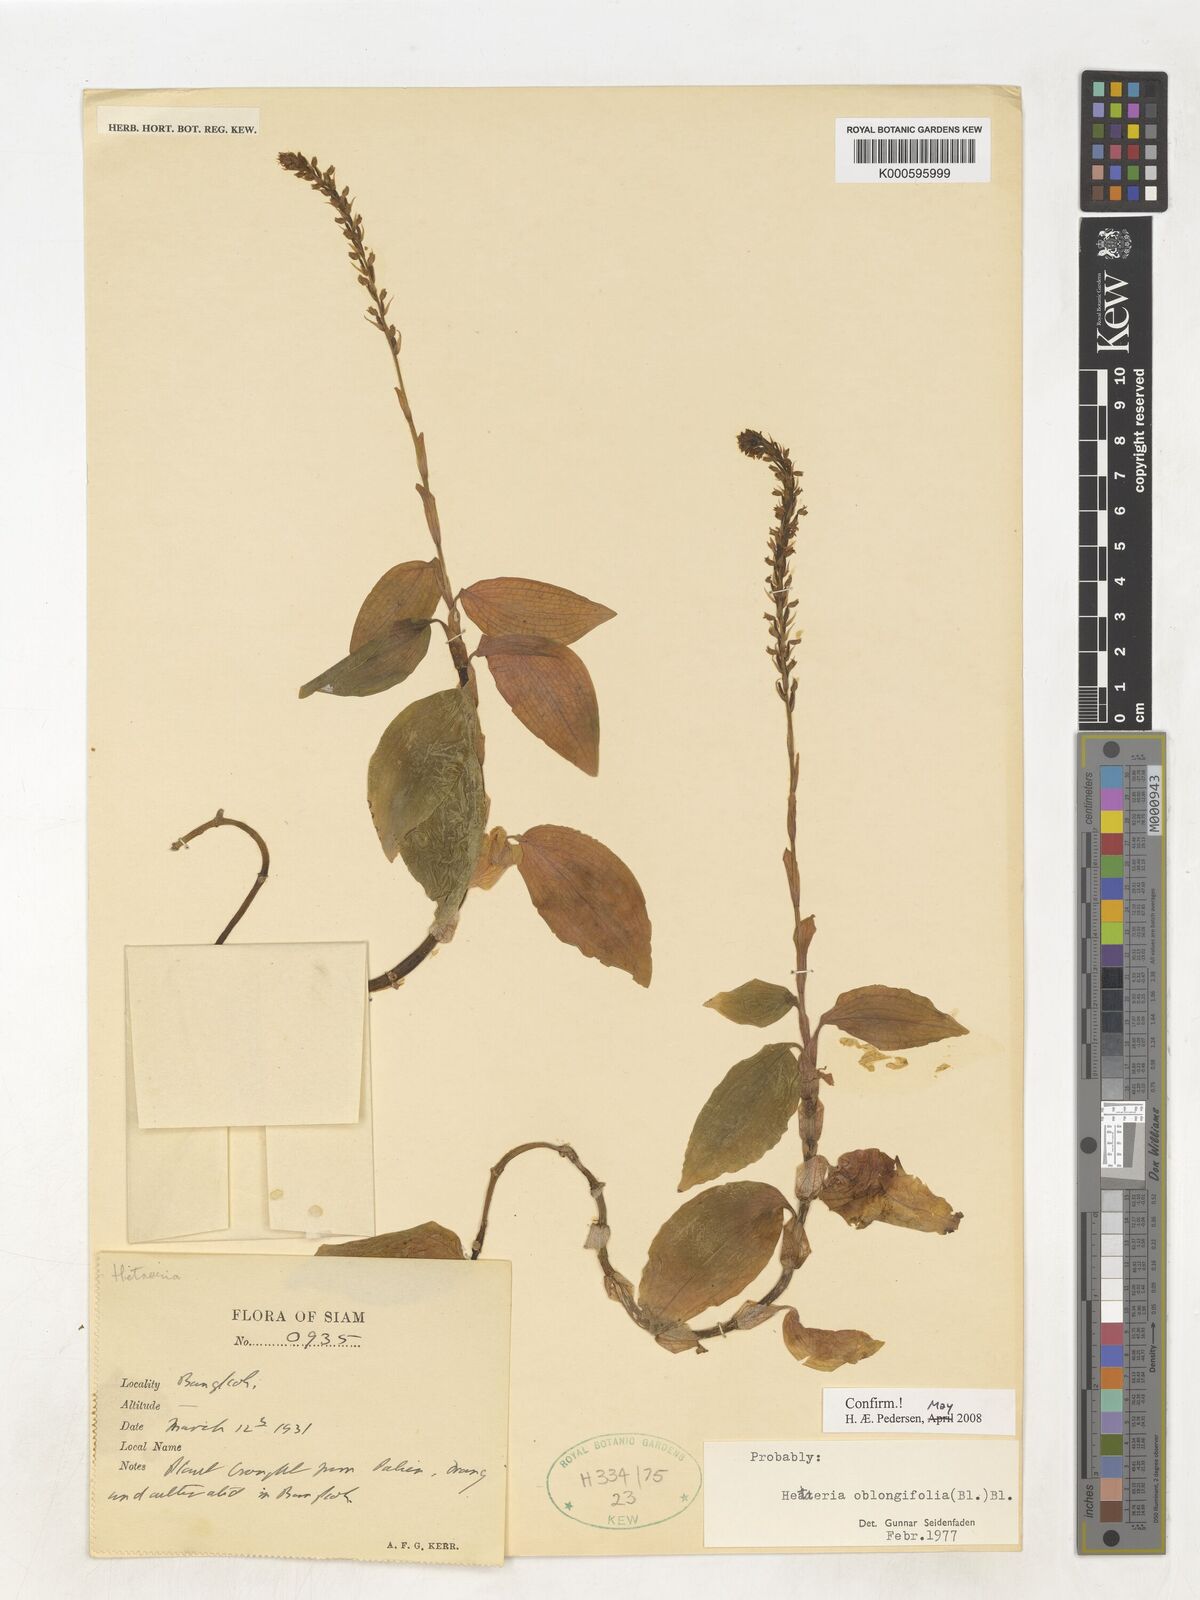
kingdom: Plantae
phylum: Tracheophyta
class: Liliopsida
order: Asparagales
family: Orchidaceae
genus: Hetaeria
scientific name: Hetaeria oblongifolia
